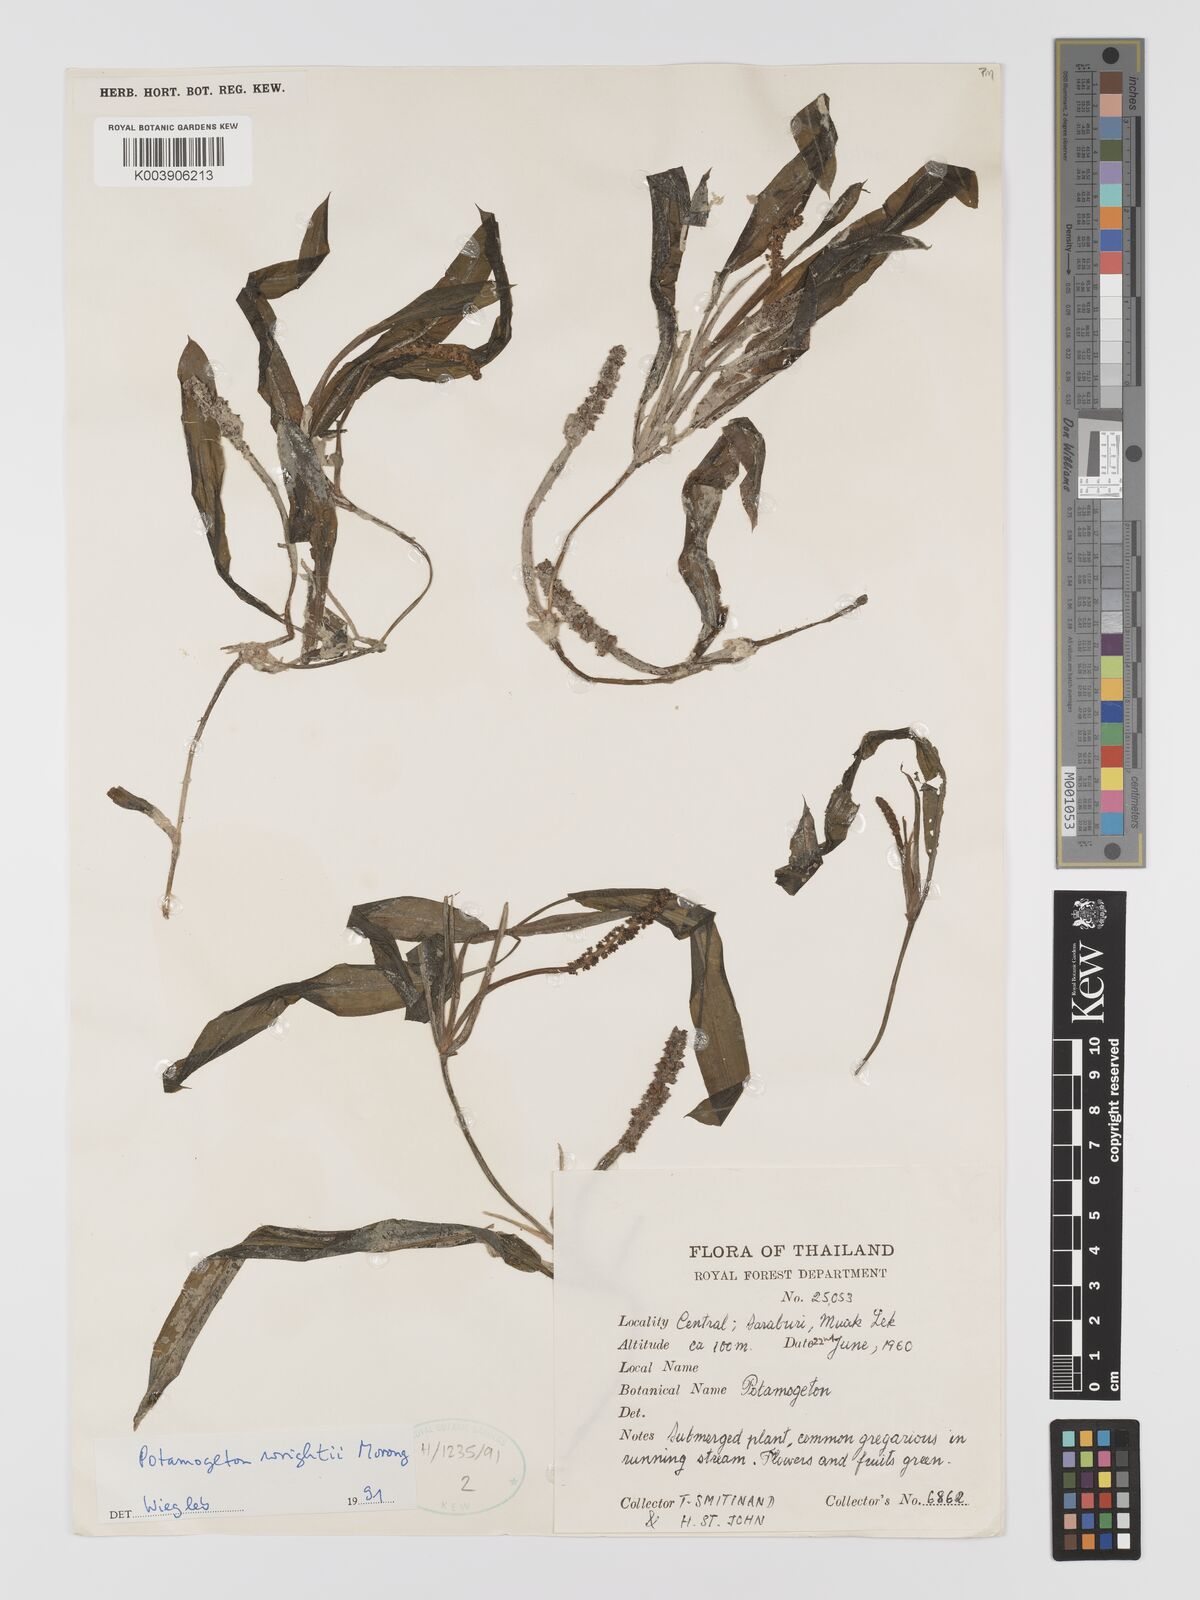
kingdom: Plantae
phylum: Tracheophyta
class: Liliopsida
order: Alismatales
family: Potamogetonaceae
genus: Potamogeton
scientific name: Potamogeton distinctus
